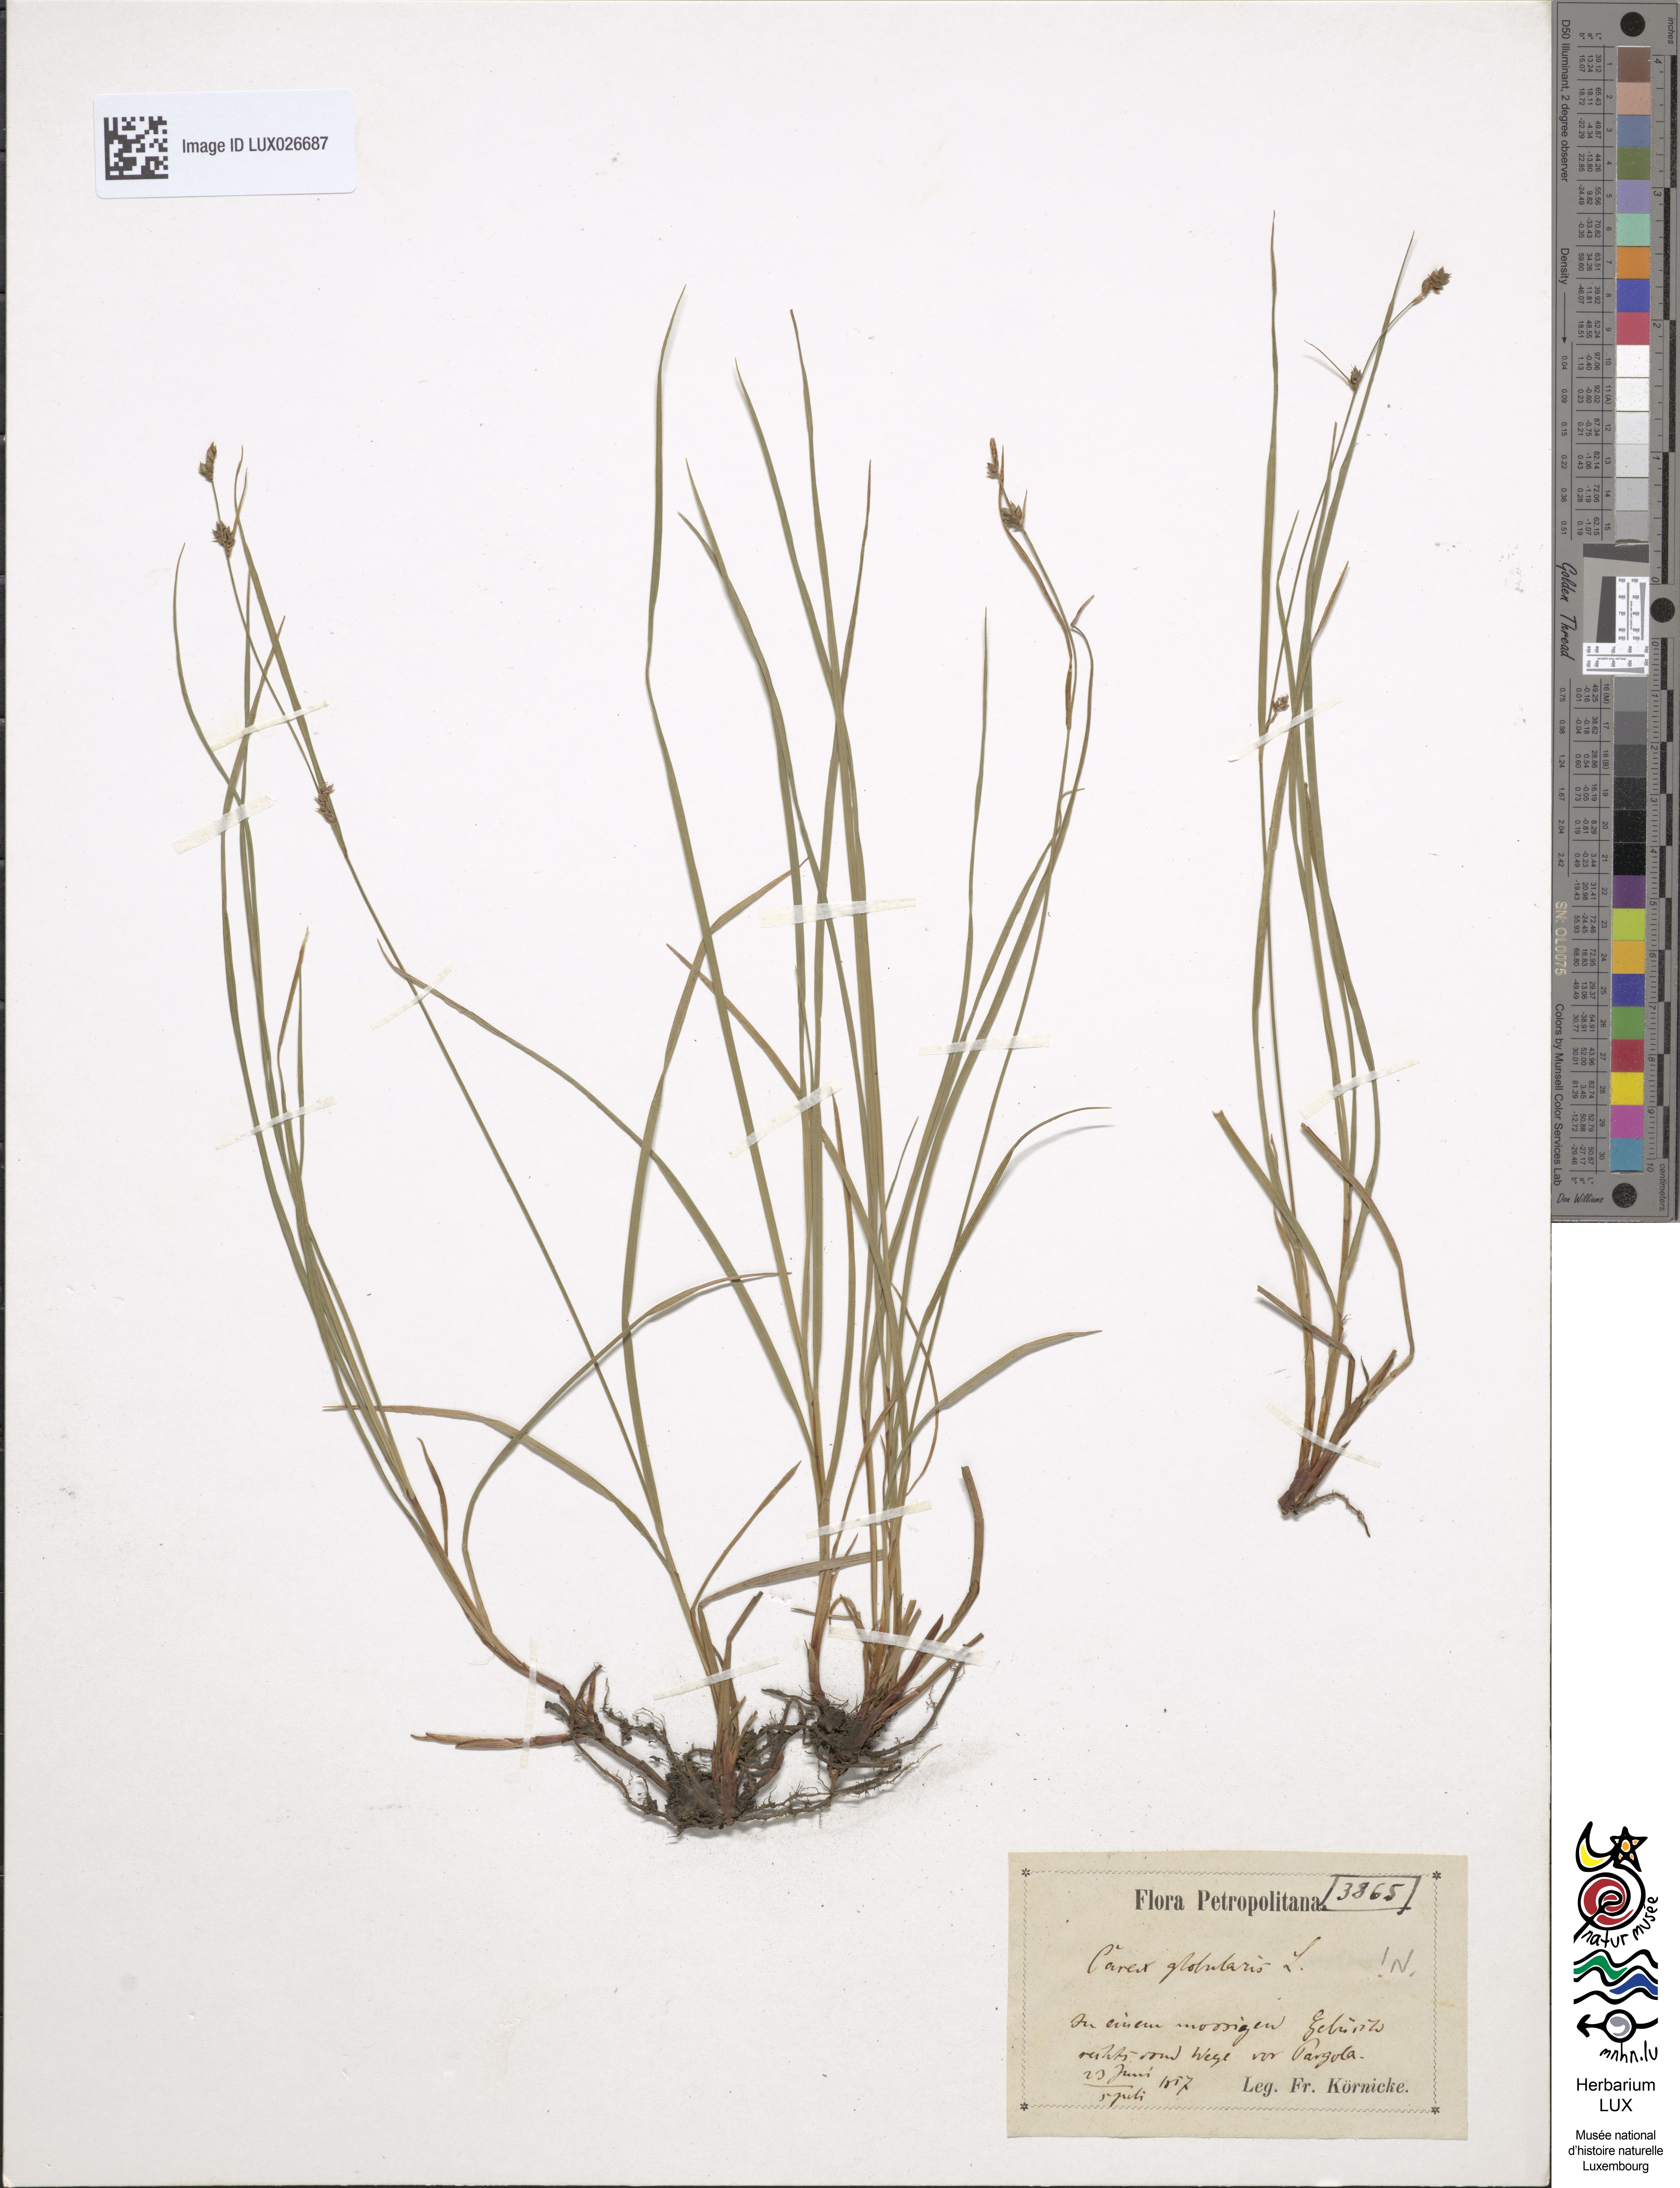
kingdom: Plantae
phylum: Tracheophyta
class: Liliopsida
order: Poales
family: Cyperaceae
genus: Carex
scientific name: Carex globularis
